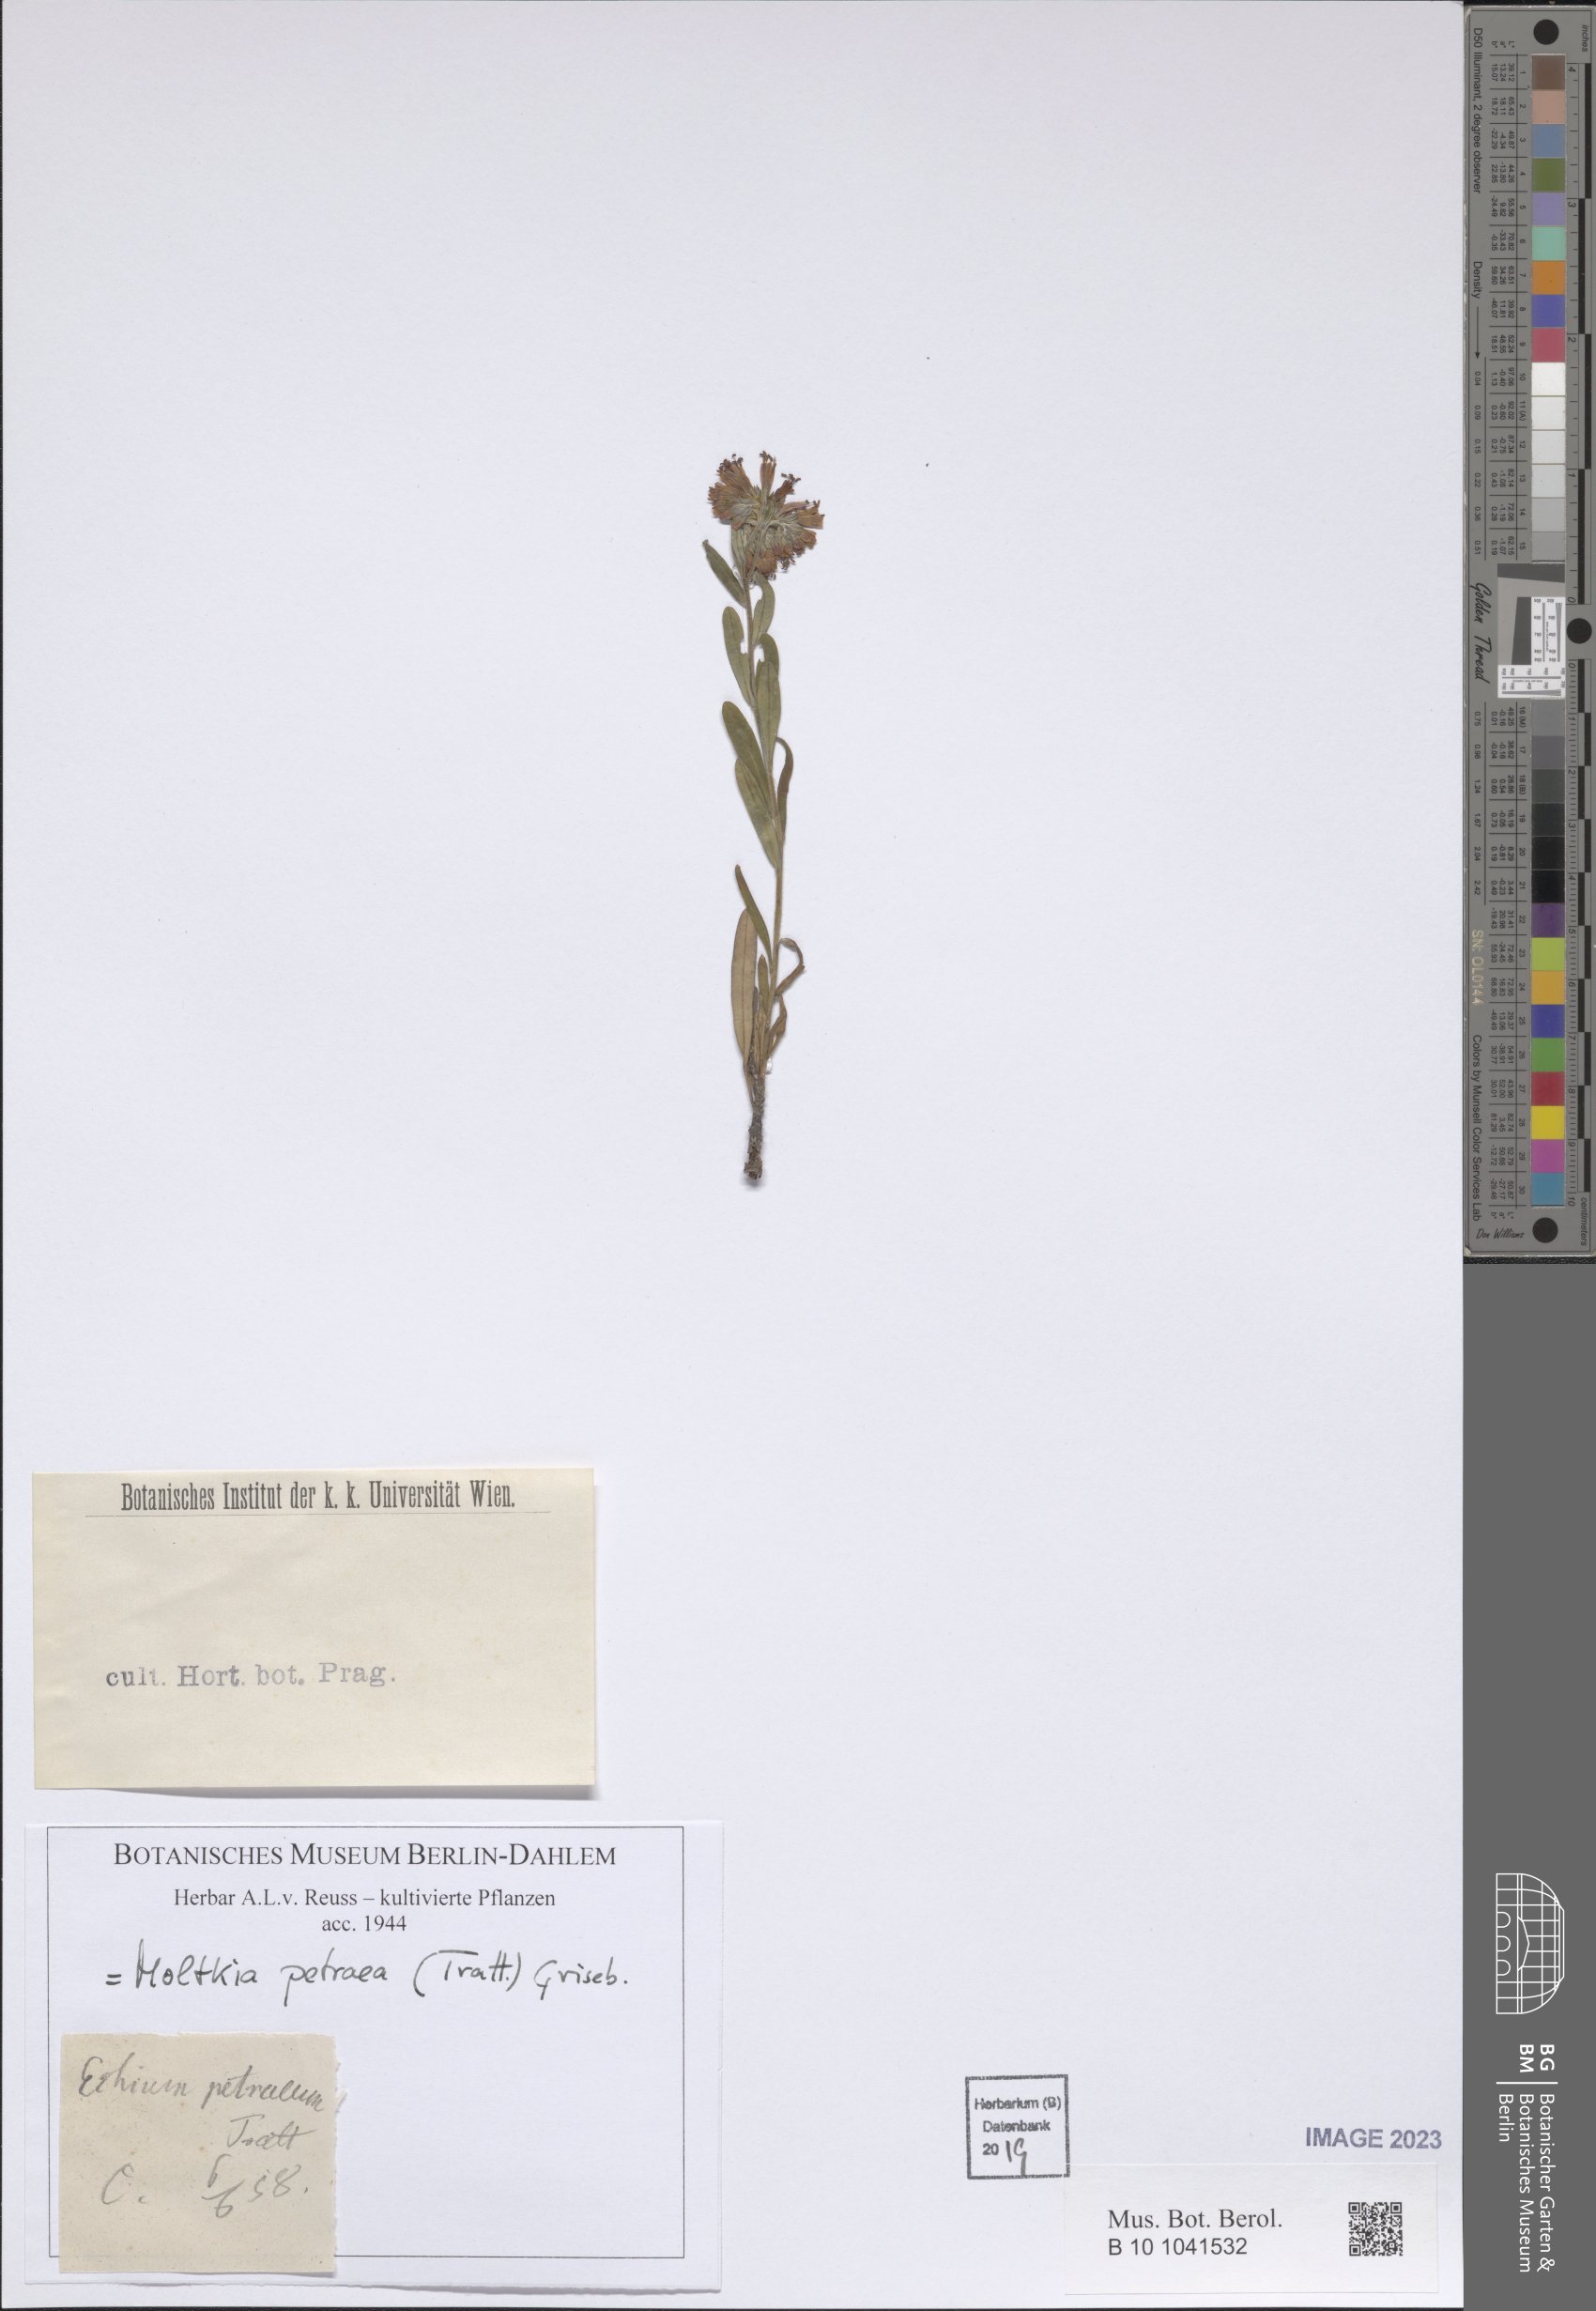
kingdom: Plantae
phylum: Tracheophyta
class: Magnoliopsida
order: Boraginales
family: Boraginaceae
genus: Moltkia
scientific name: Moltkia petraea
